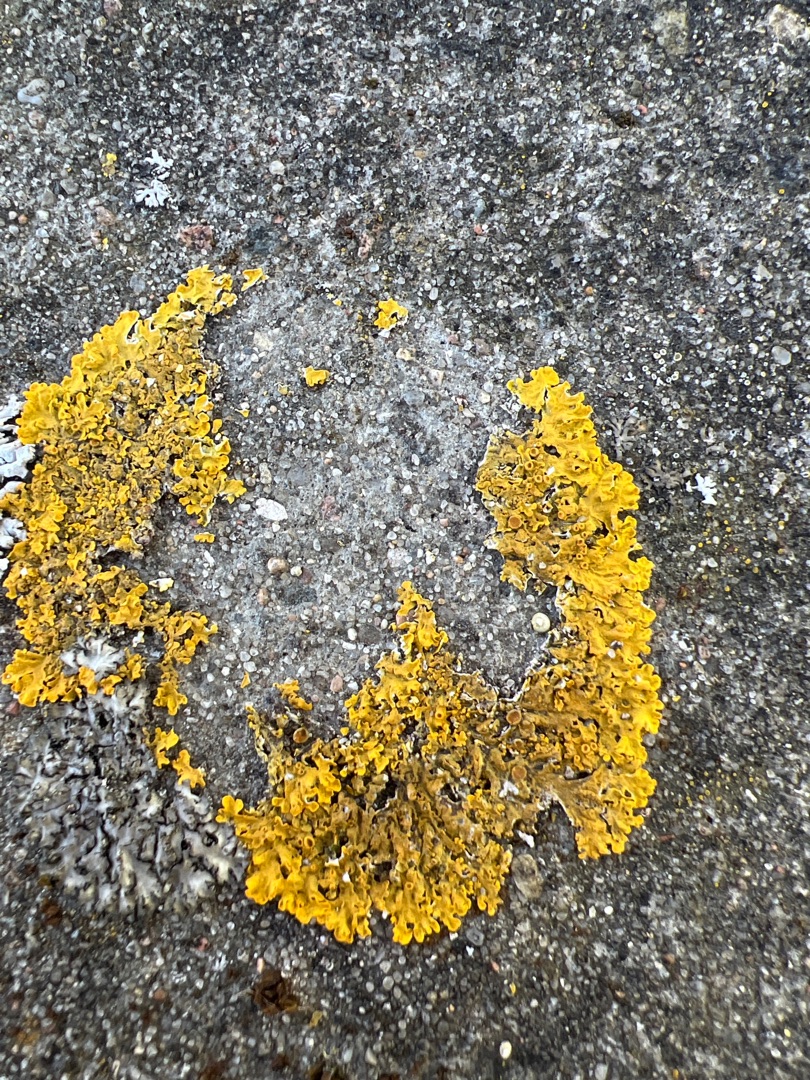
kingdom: Fungi
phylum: Ascomycota
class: Lecanoromycetes
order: Teloschistales
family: Teloschistaceae
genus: Xanthoria
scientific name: Xanthoria parietina
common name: Almindelig væggelav
